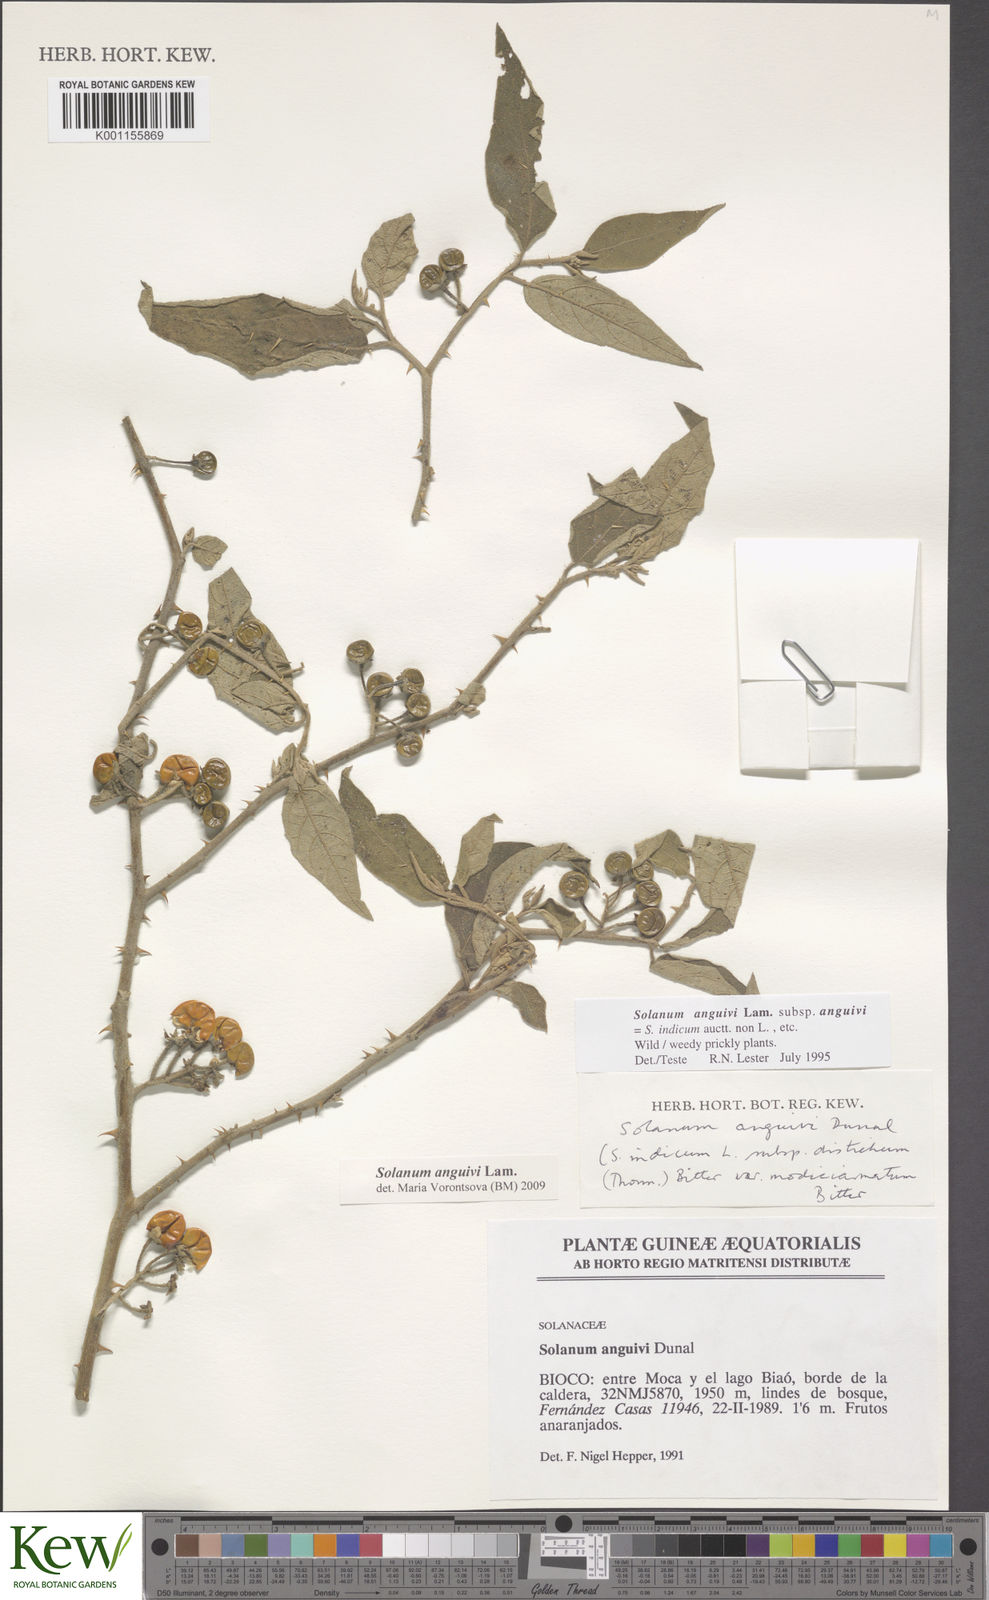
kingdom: Plantae
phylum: Tracheophyta
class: Magnoliopsida
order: Solanales
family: Solanaceae
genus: Solanum
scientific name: Solanum anguivi
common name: Forest bitterberry
